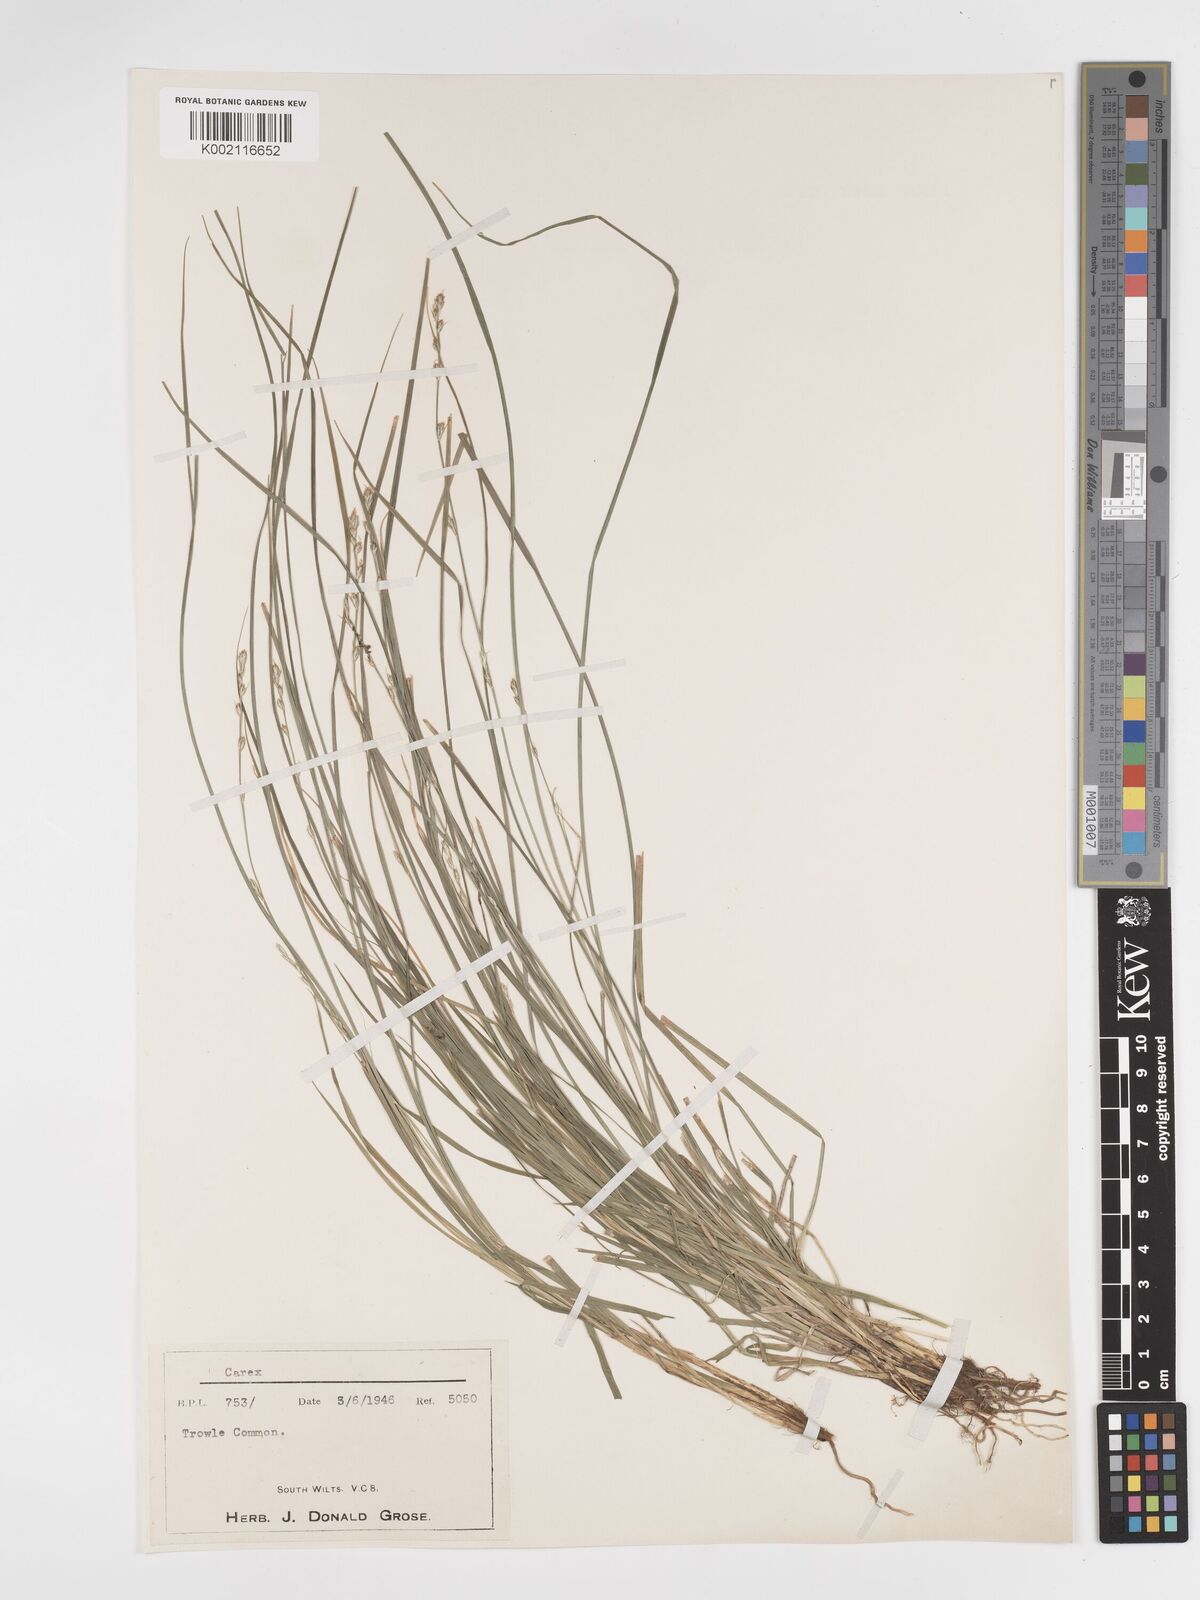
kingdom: Plantae
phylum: Tracheophyta
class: Liliopsida
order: Poales
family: Cyperaceae
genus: Carex
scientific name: Carex divulsa
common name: Grassland sedge
